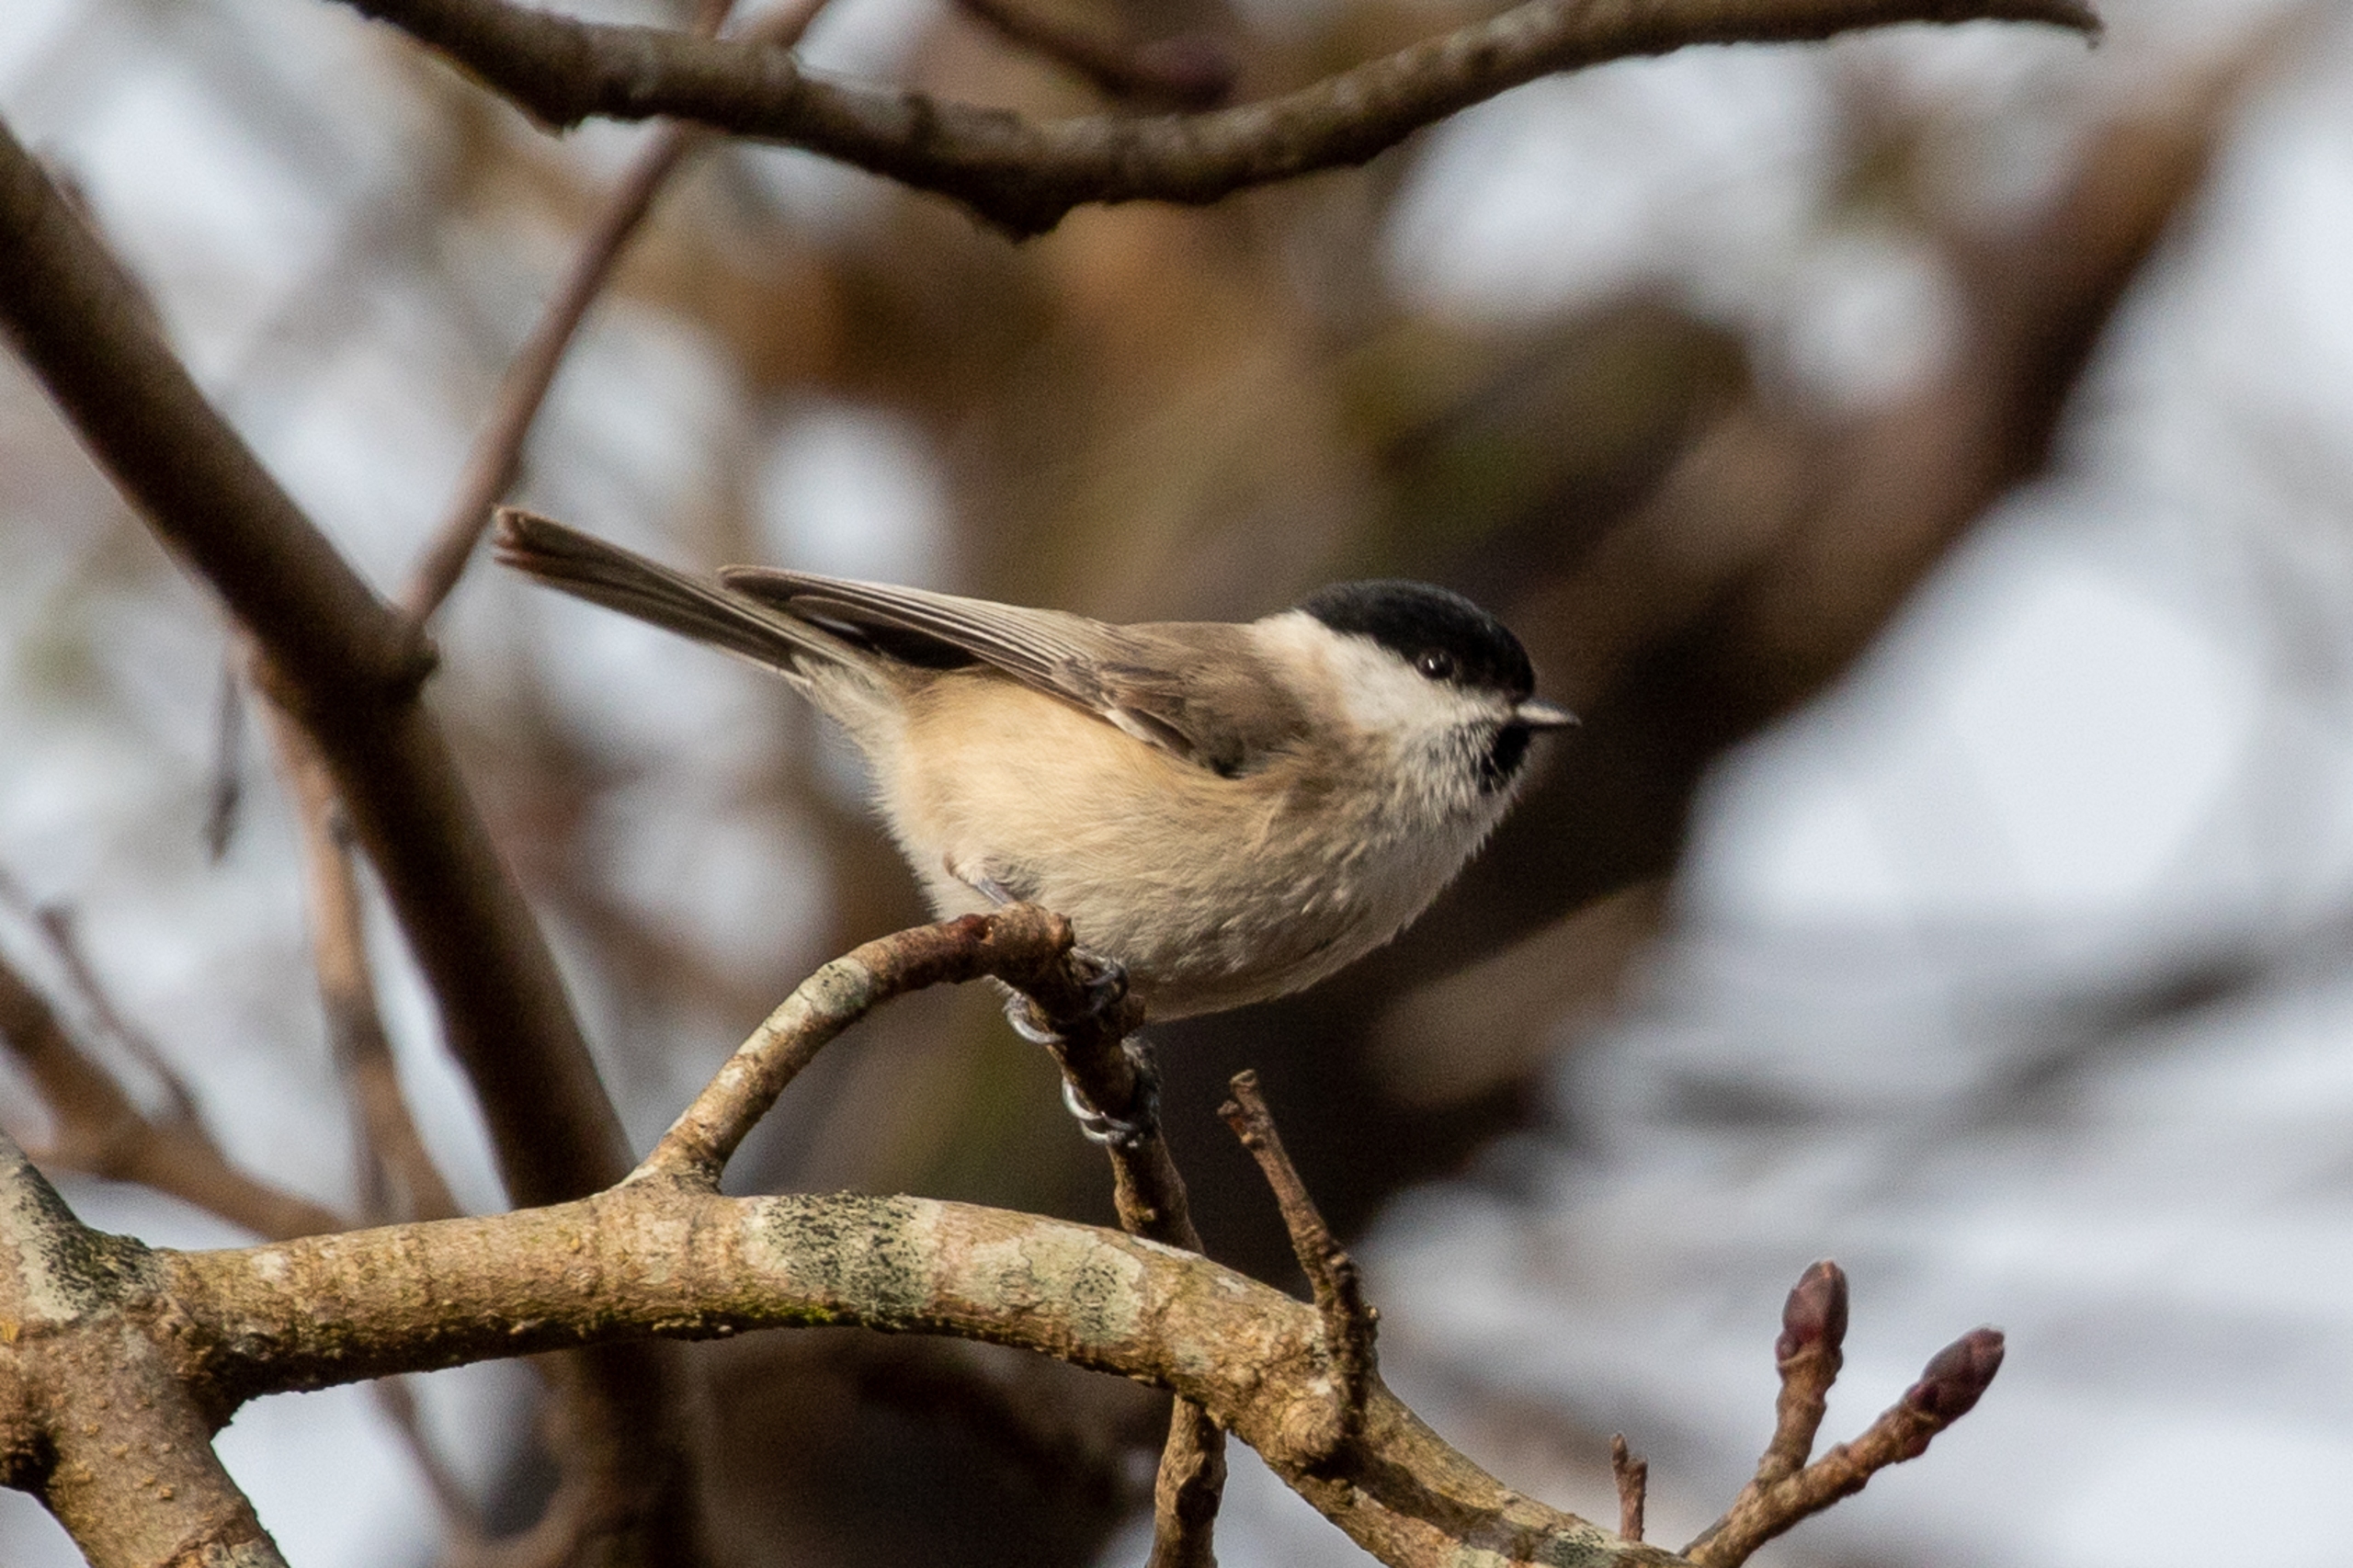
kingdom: Animalia
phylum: Chordata
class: Aves
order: Passeriformes
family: Paridae
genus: Poecile
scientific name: Poecile palustris
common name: Sumpmejse
